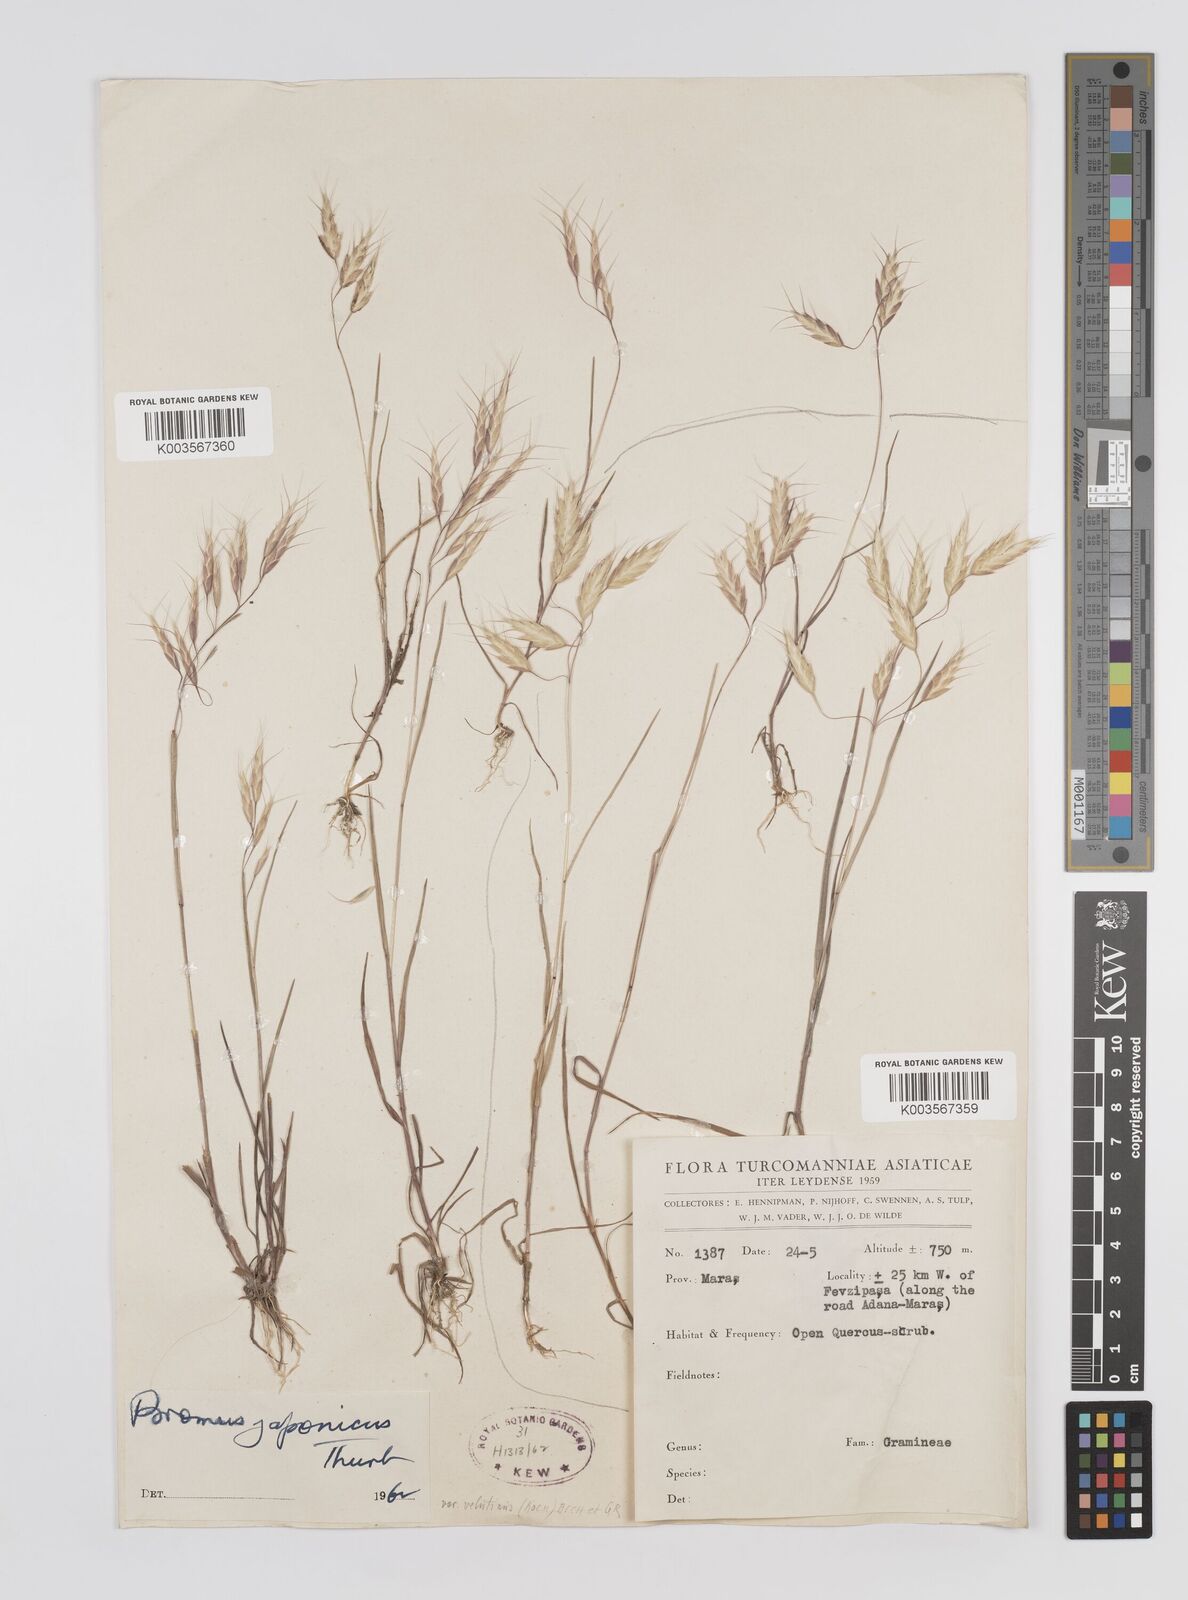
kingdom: Plantae
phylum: Tracheophyta
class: Liliopsida
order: Poales
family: Poaceae
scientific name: Poaceae
